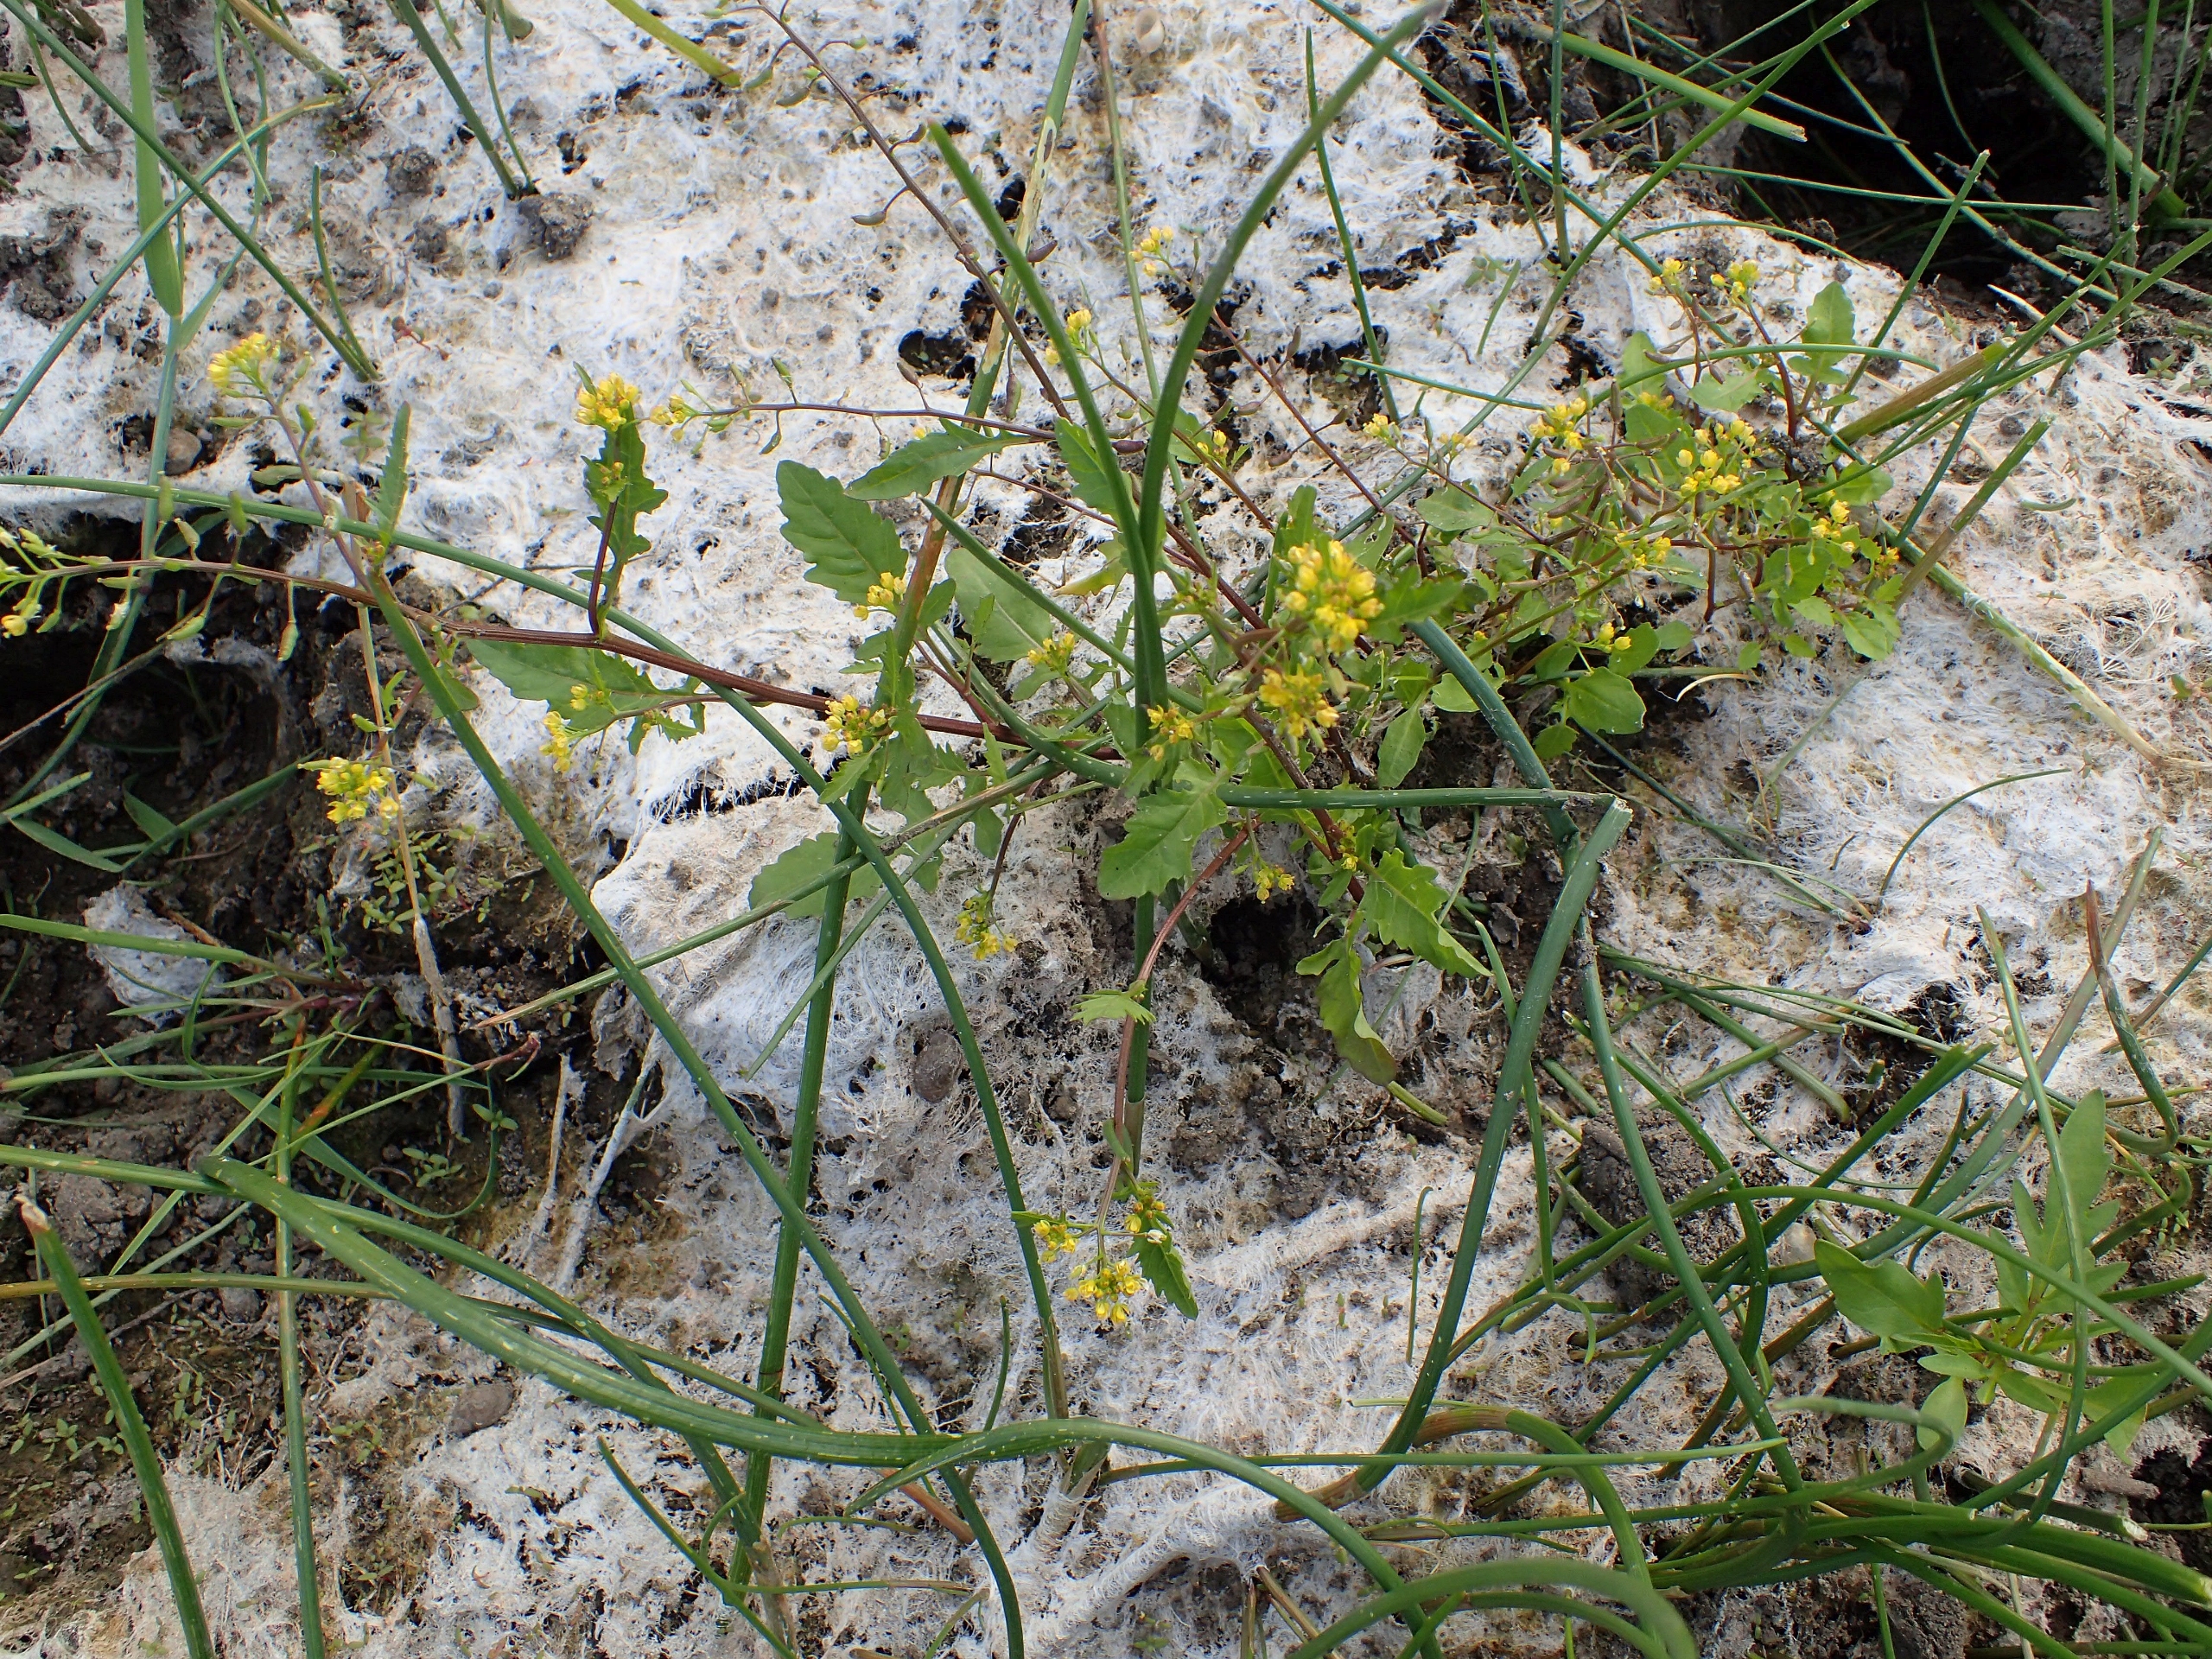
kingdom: Plantae
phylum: Tracheophyta
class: Magnoliopsida
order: Brassicales
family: Brassicaceae
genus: Rorippa
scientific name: Rorippa palustris
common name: Kær-guldkarse
